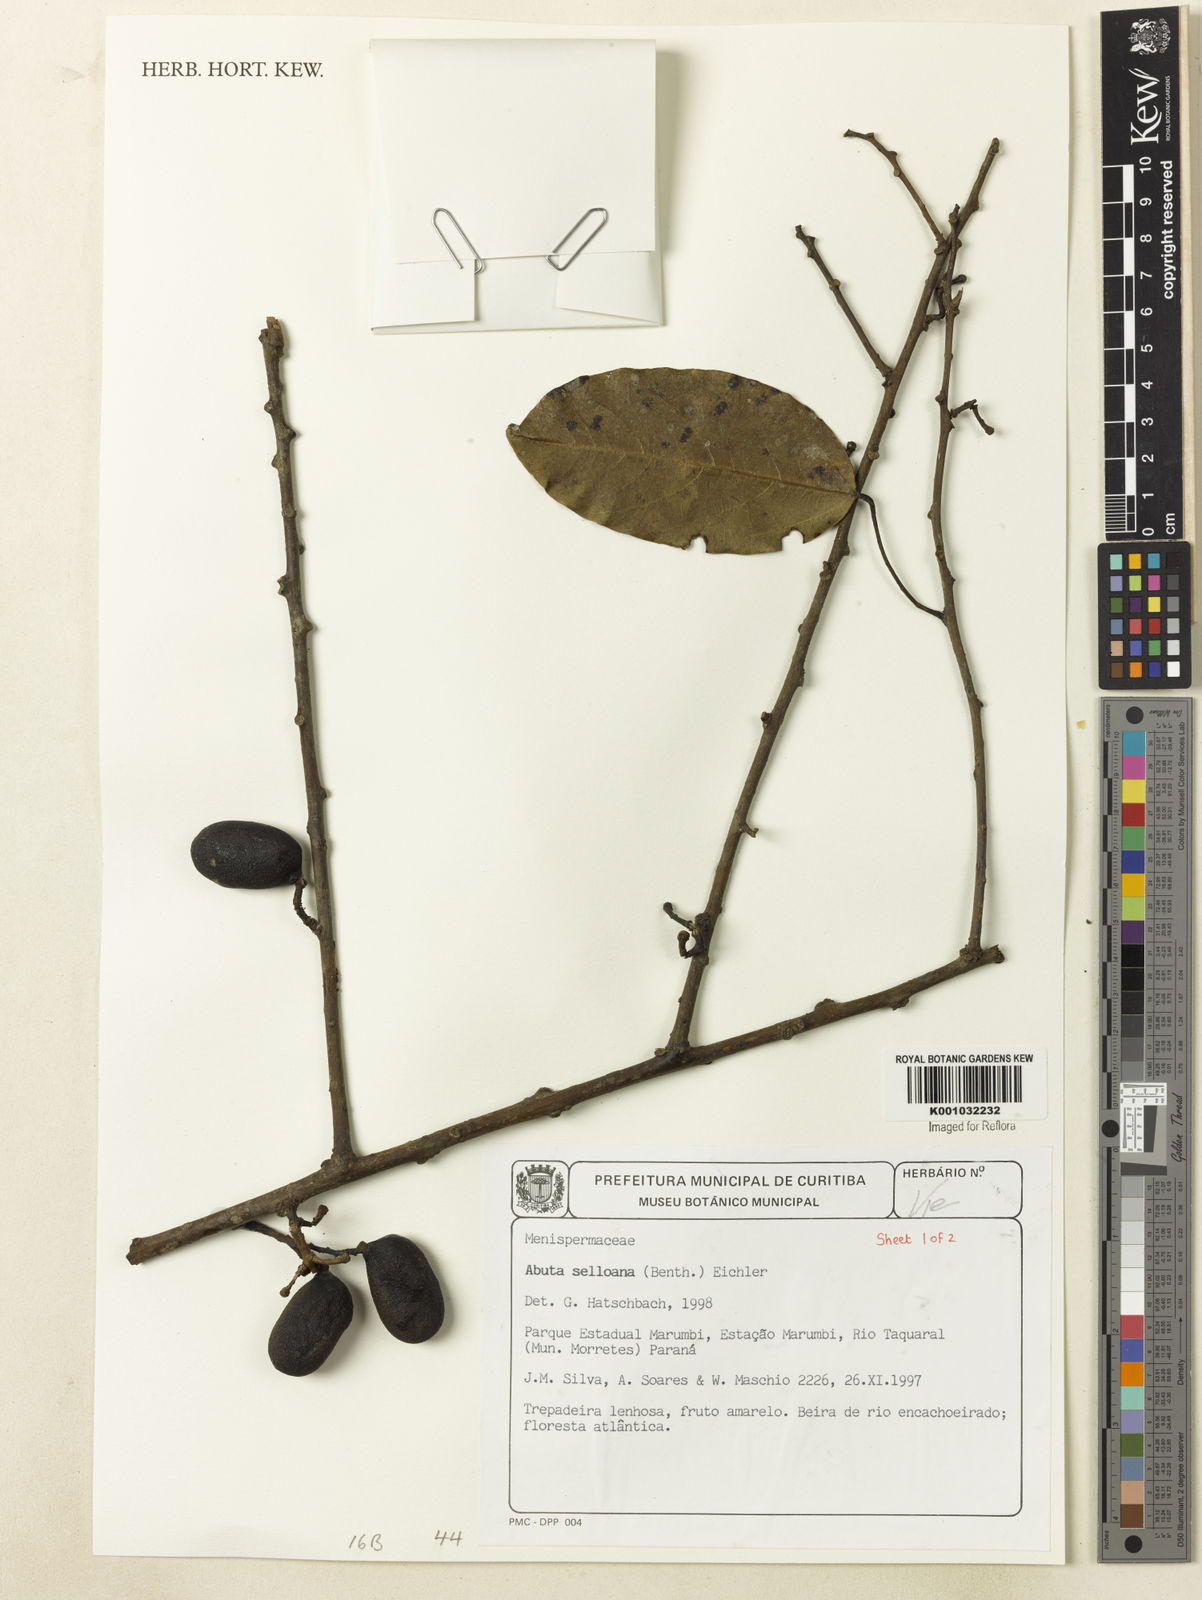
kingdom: Plantae
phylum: Tracheophyta
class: Magnoliopsida
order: Ranunculales
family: Menispermaceae
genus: Abuta
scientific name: Abuta selloana
